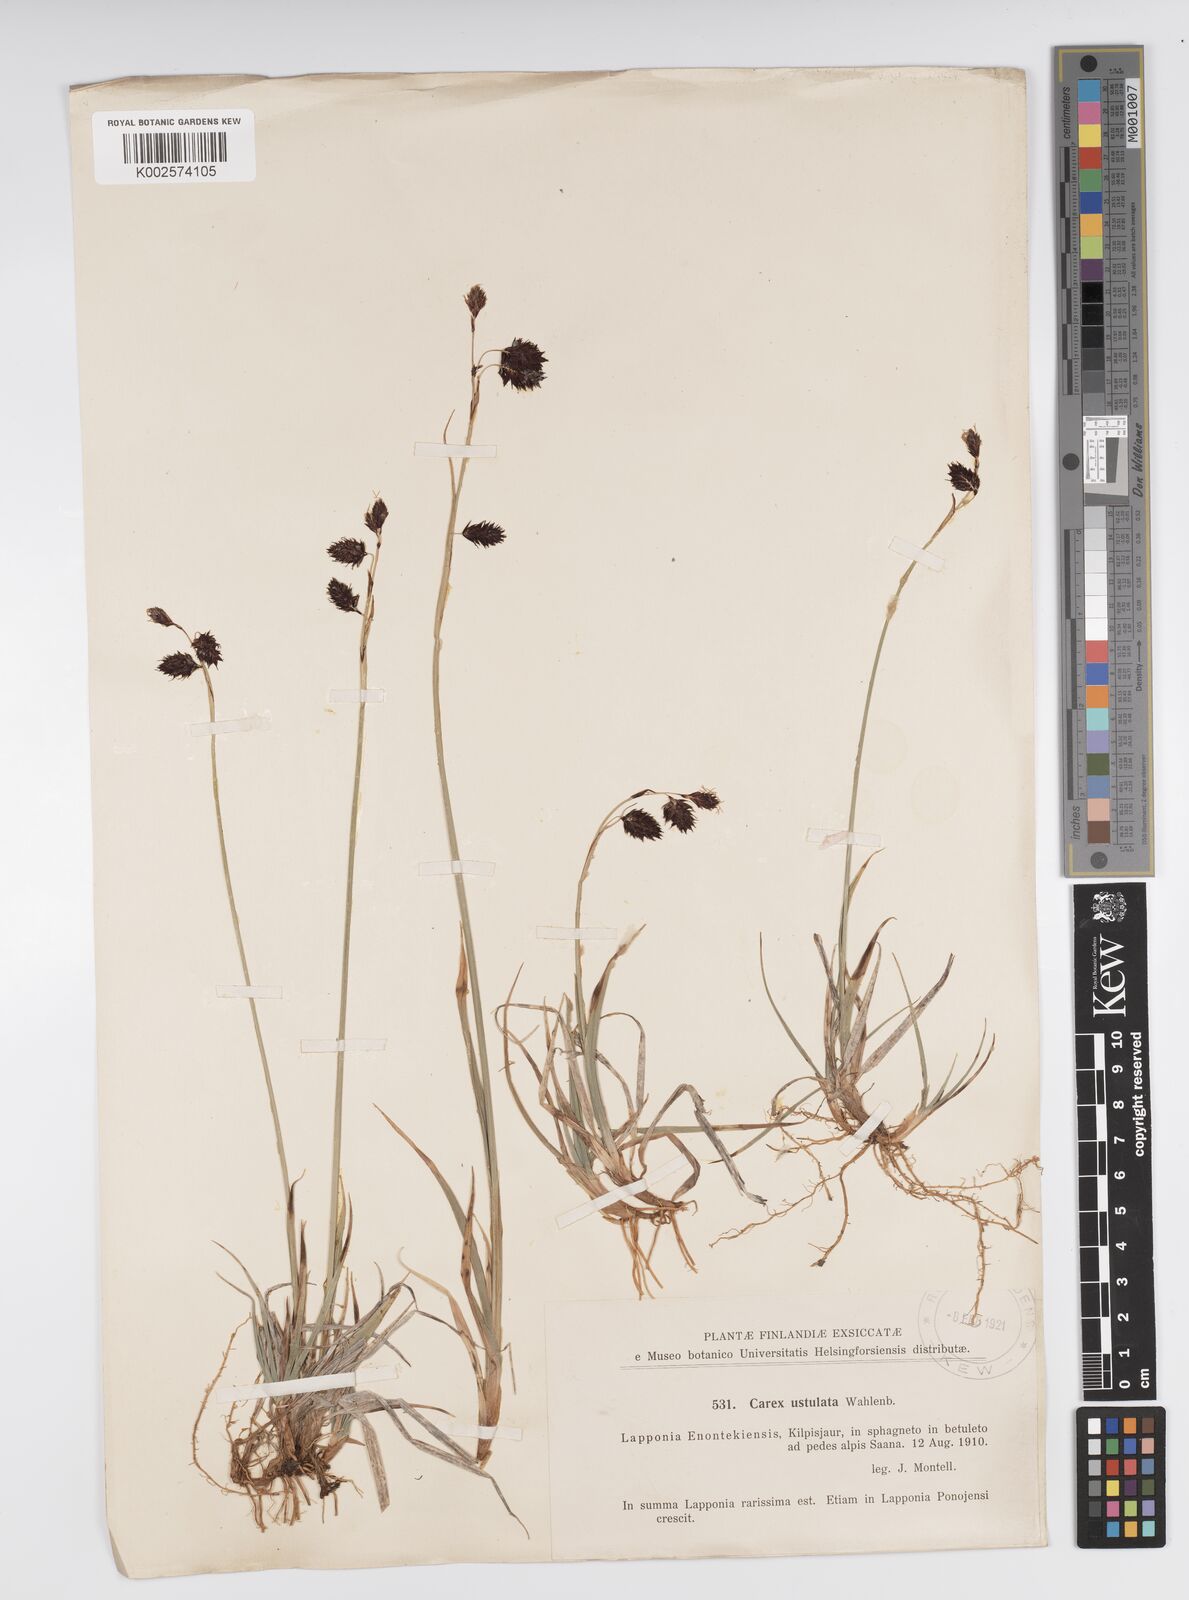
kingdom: Plantae
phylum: Tracheophyta
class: Liliopsida
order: Poales
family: Cyperaceae
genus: Carex
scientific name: Carex atrofusca
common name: Scorched alpine-sedge
